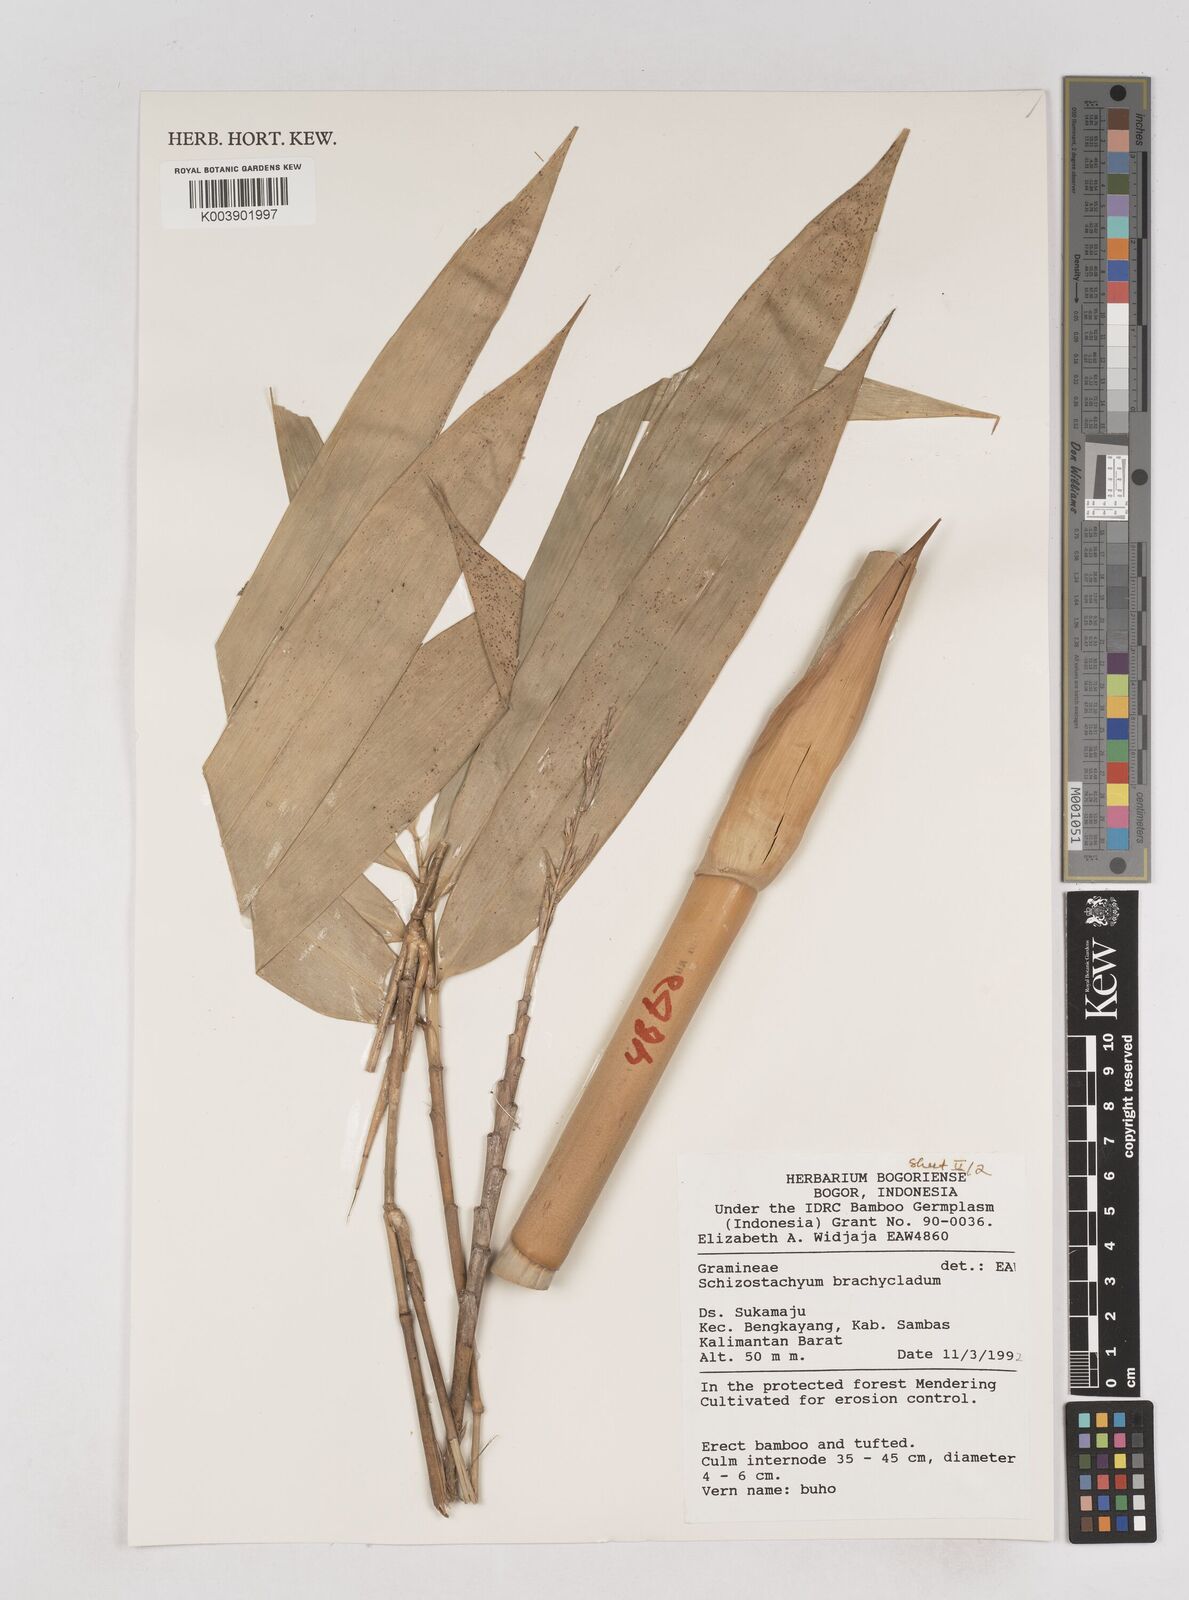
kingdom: Plantae
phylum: Tracheophyta
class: Liliopsida
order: Poales
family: Poaceae
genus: Schizostachyum
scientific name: Schizostachyum brachycladum
